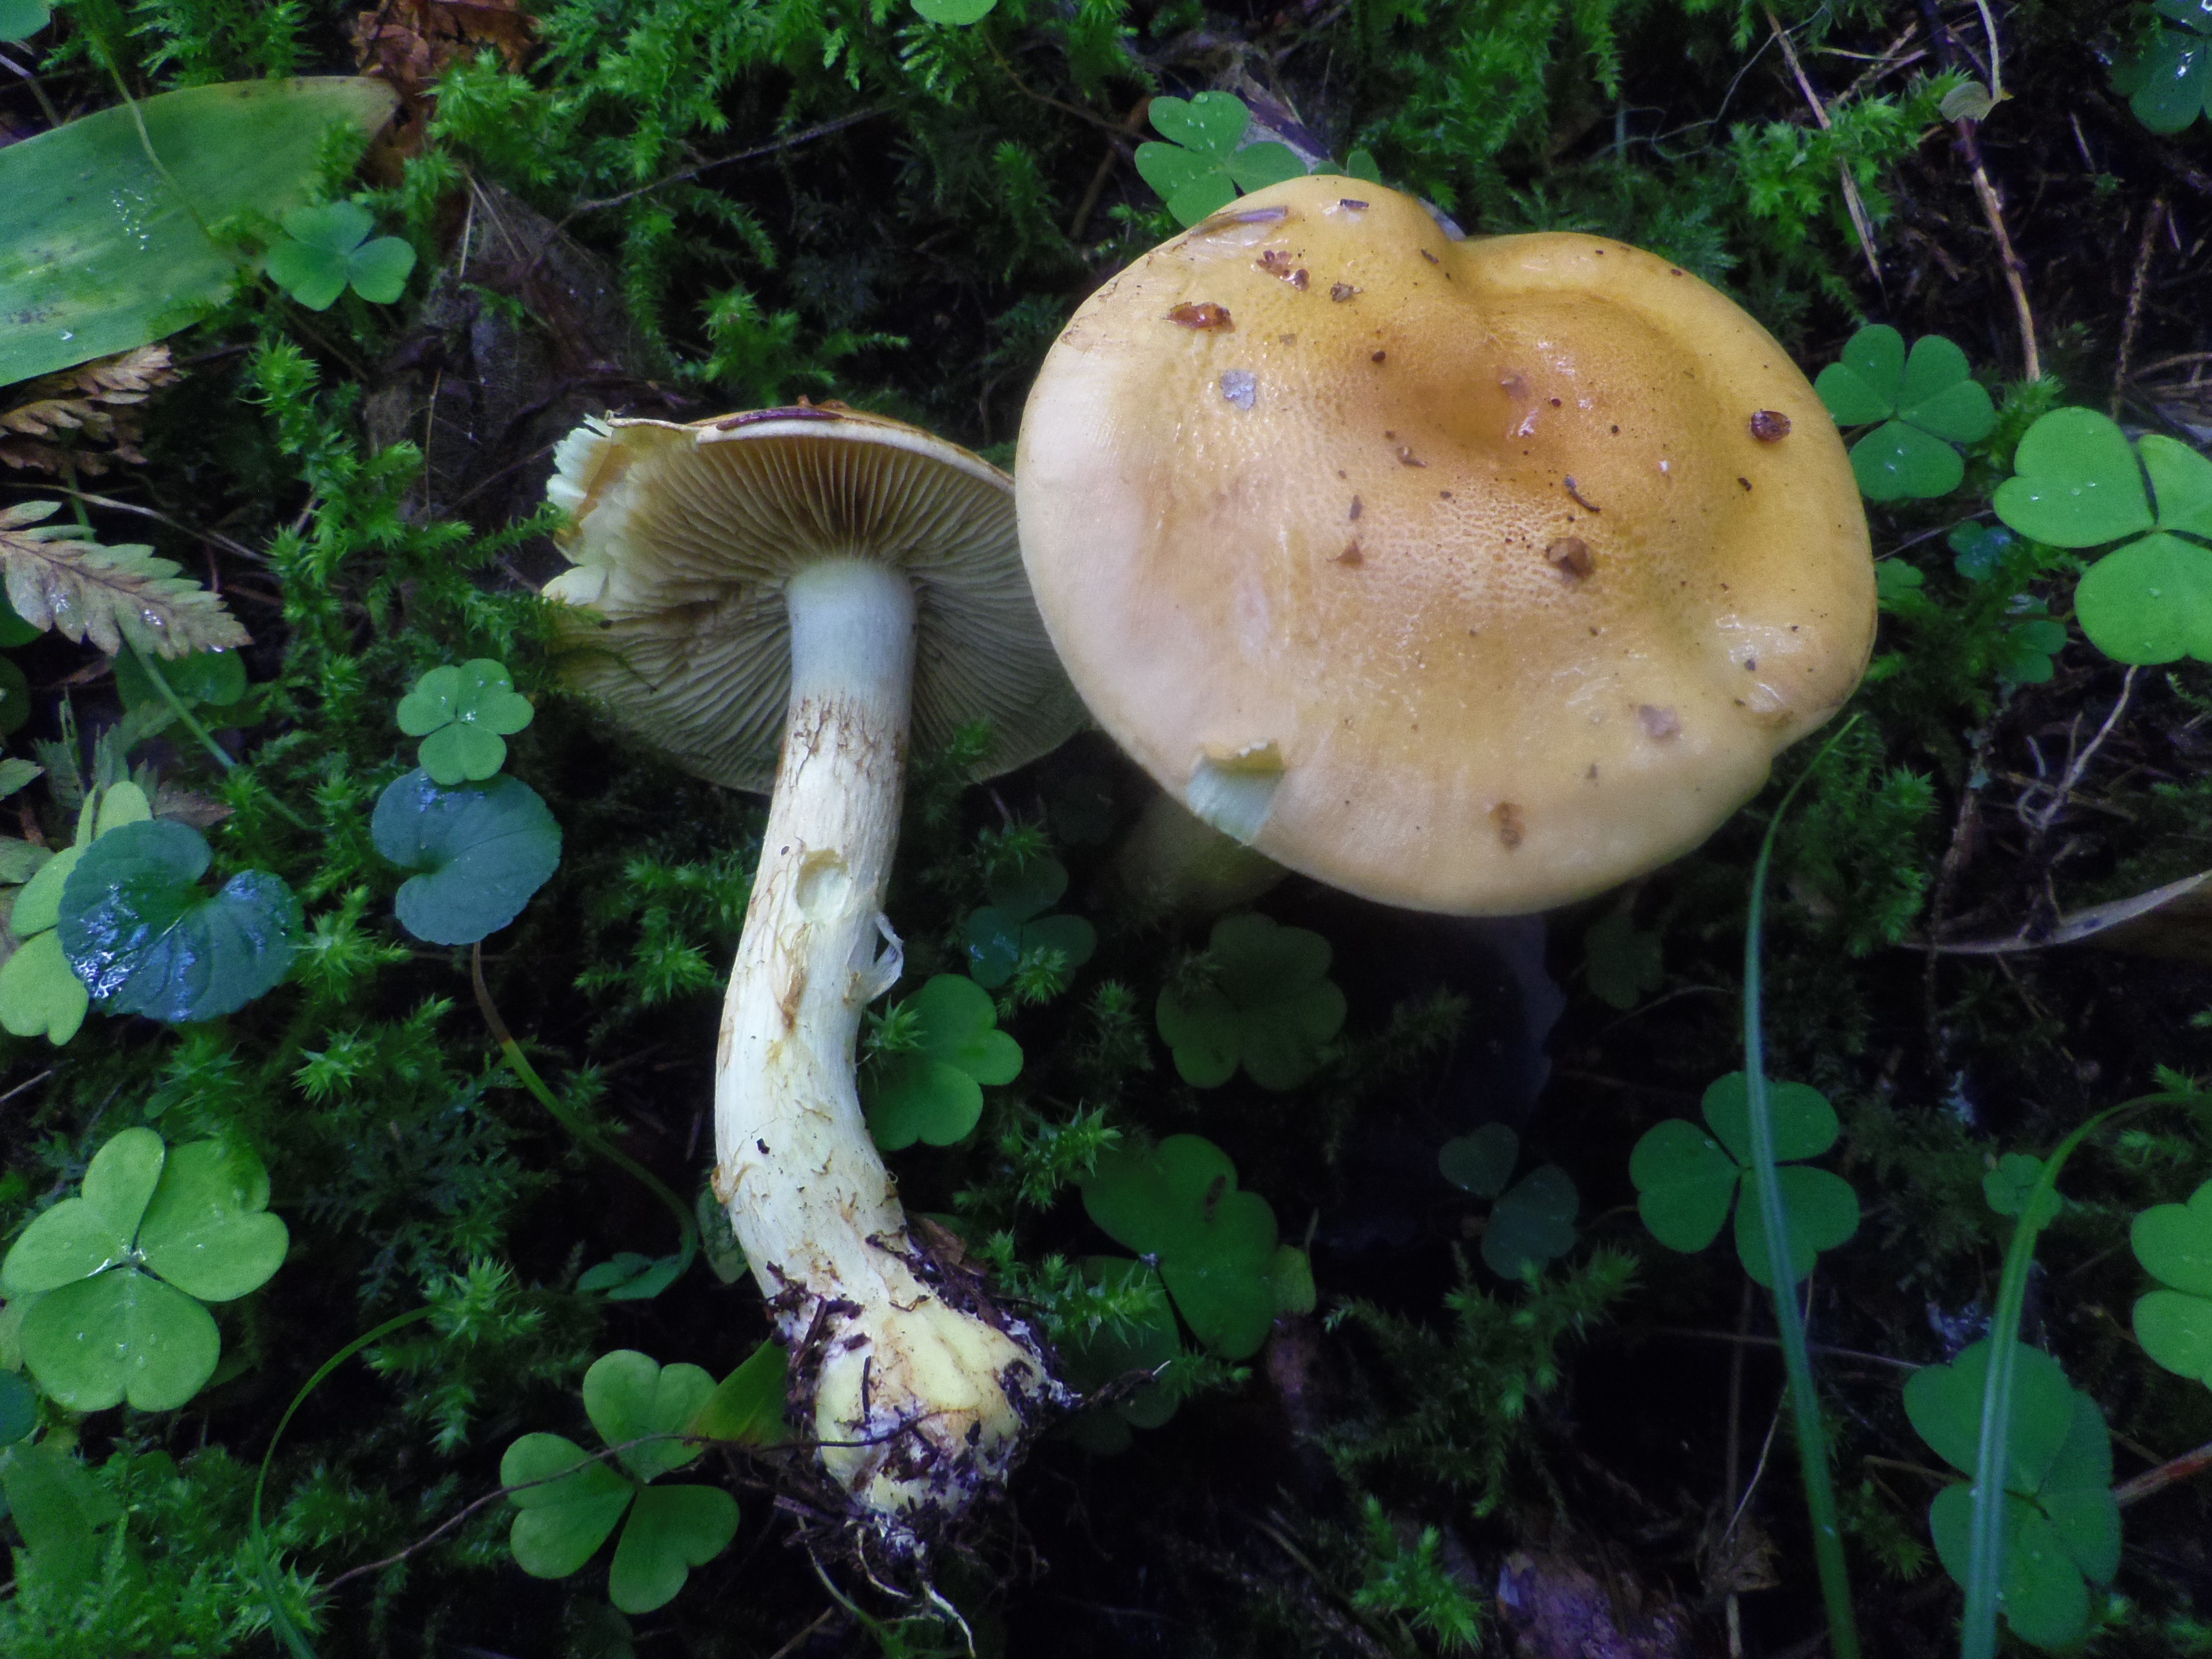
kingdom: Fungi
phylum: Basidiomycota
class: Agaricomycetes
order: Agaricales
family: Cortinariaceae
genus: Phlegmacium
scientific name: Phlegmacium percome
